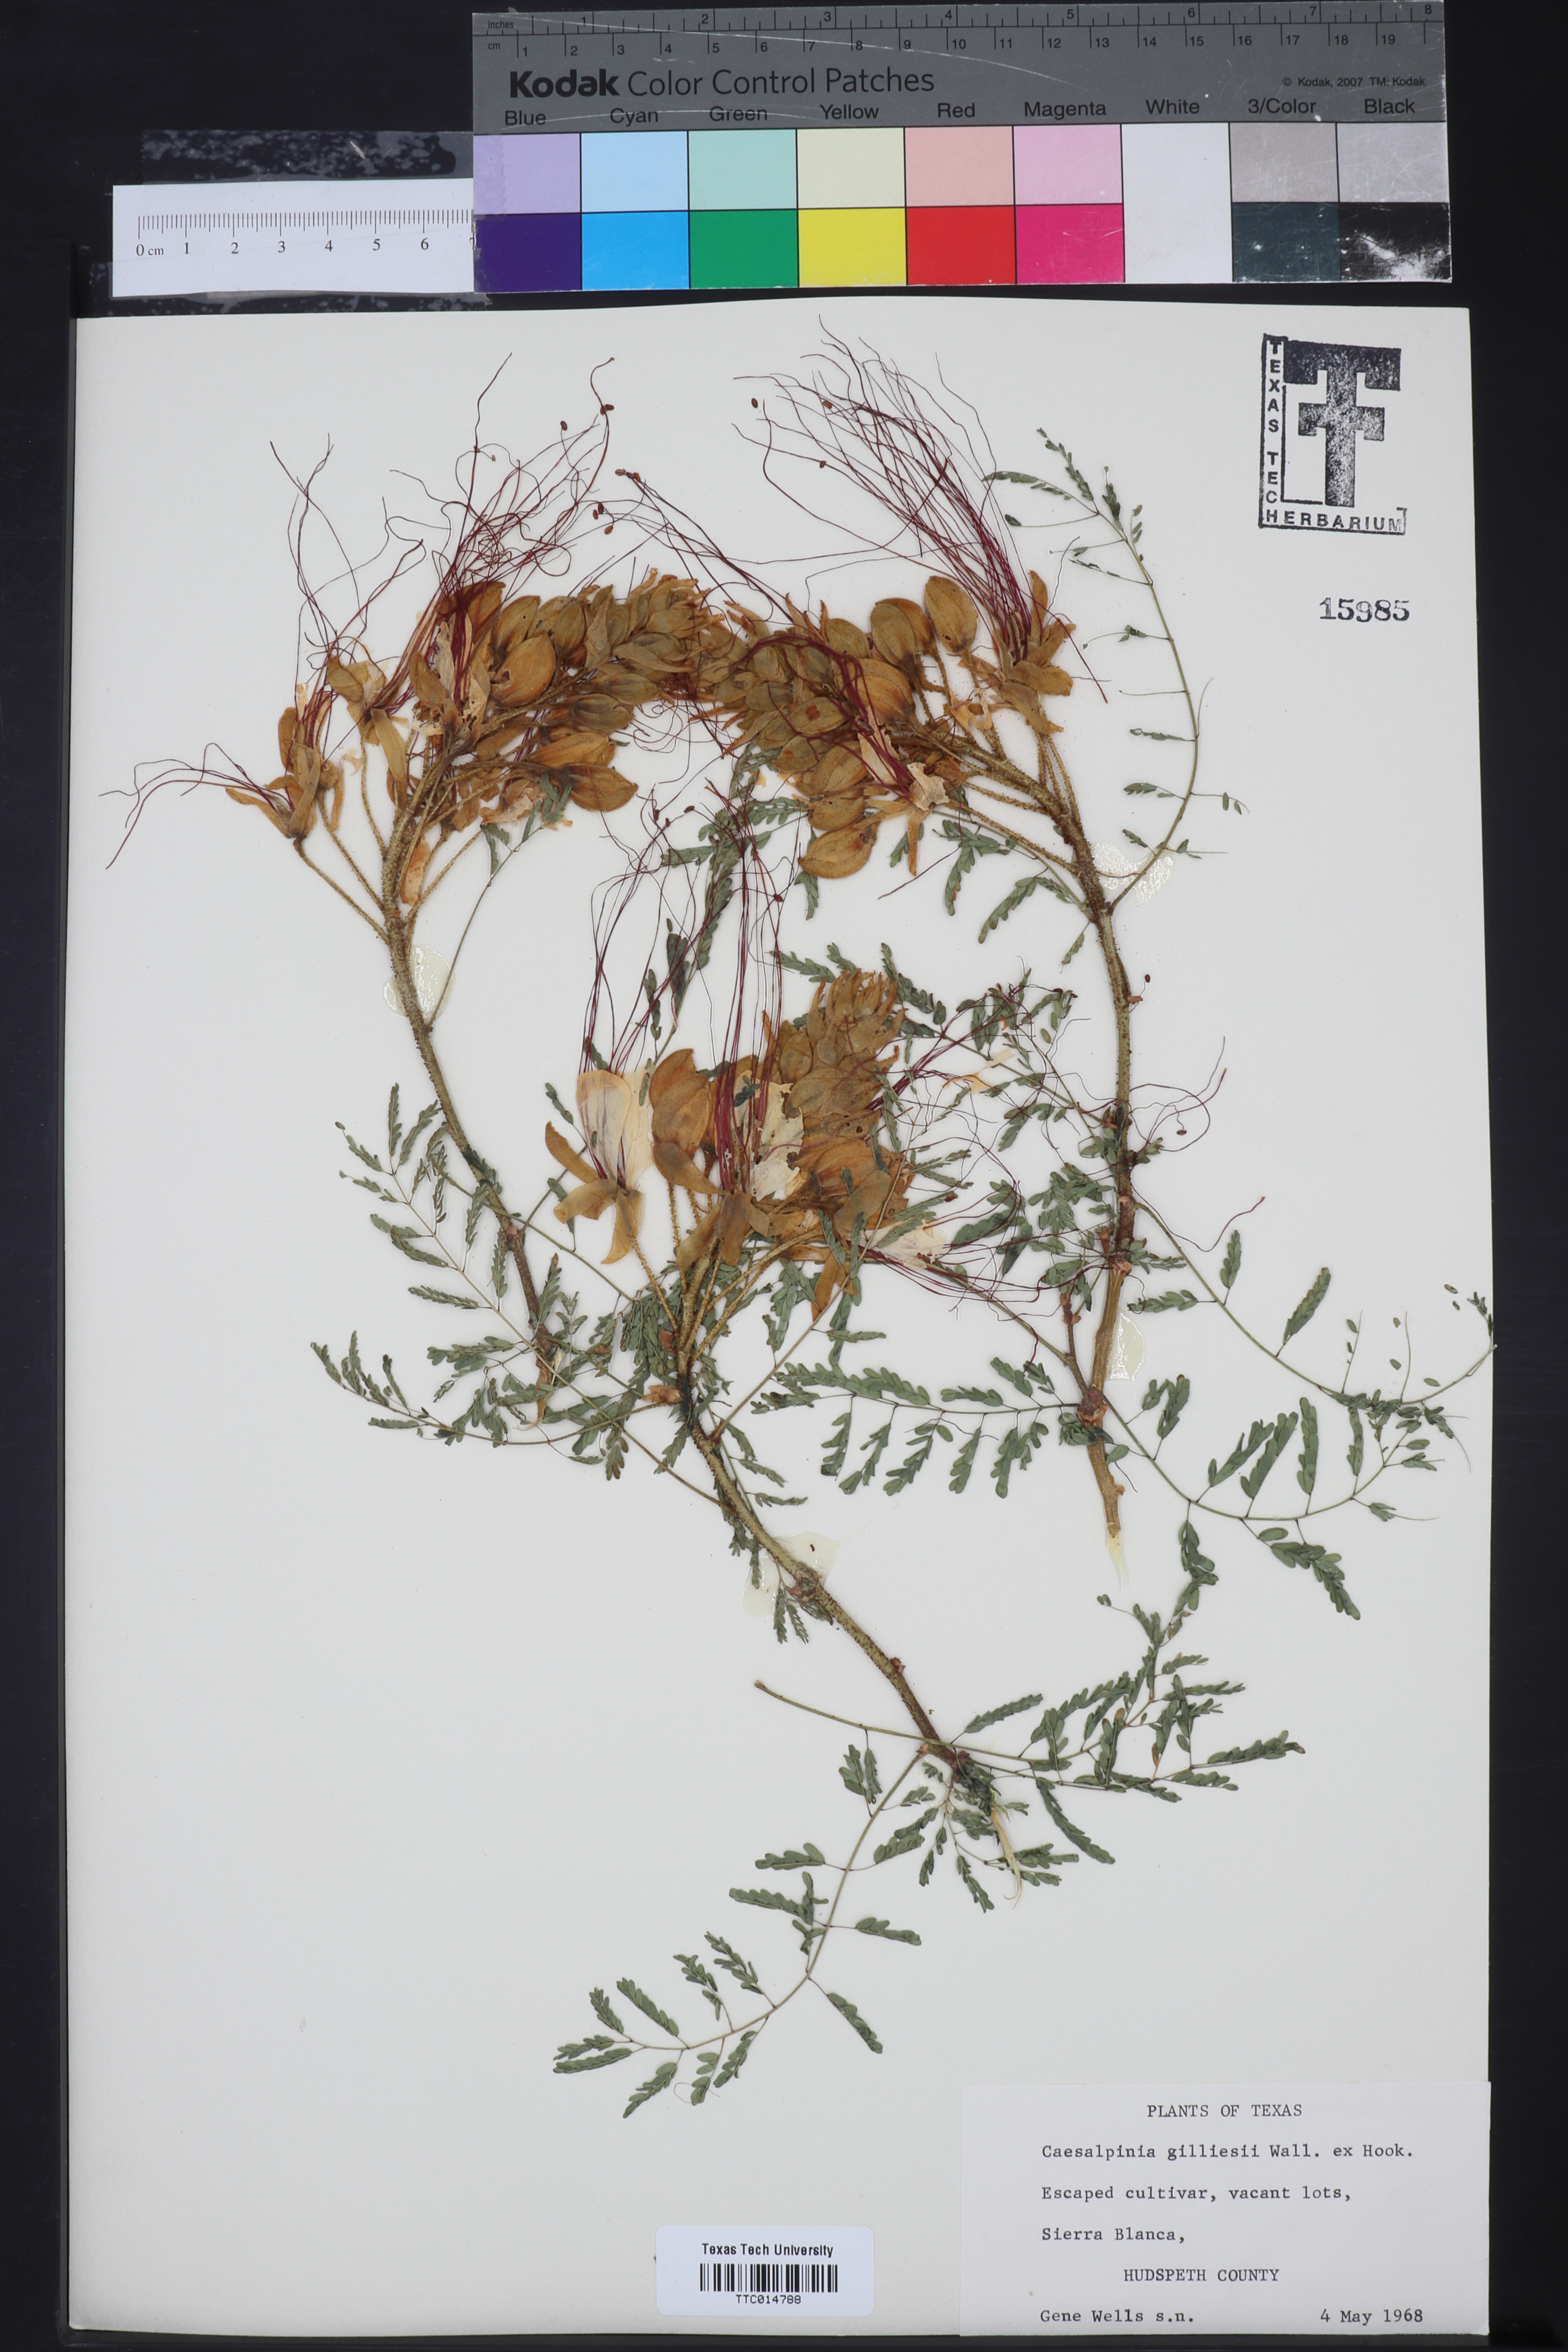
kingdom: Plantae
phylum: Tracheophyta
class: Magnoliopsida
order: Fabales
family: Fabaceae
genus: Erythrostemon
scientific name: Erythrostemon gilliesii
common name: Bird-of-paradise shrub
